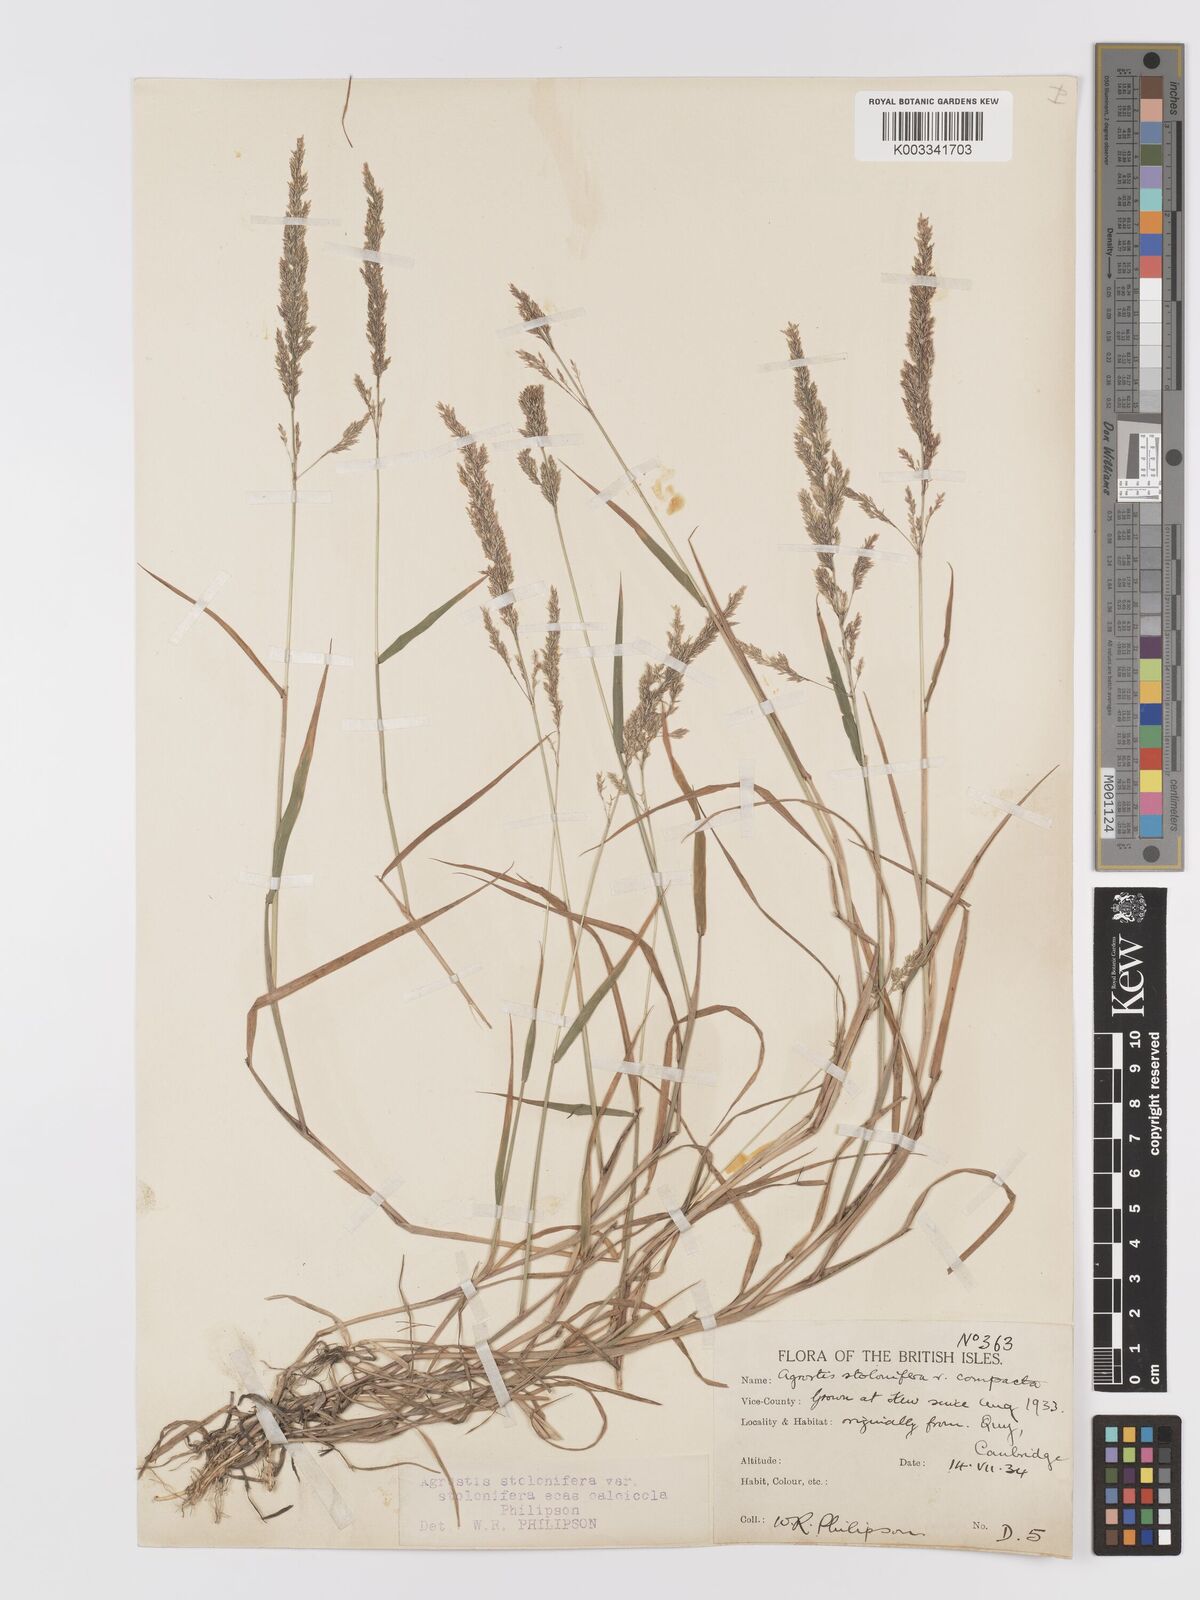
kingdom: Plantae
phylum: Tracheophyta
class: Liliopsida
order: Poales
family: Poaceae
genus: Agrostis
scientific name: Agrostis stolonifera
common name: Creeping bentgrass
